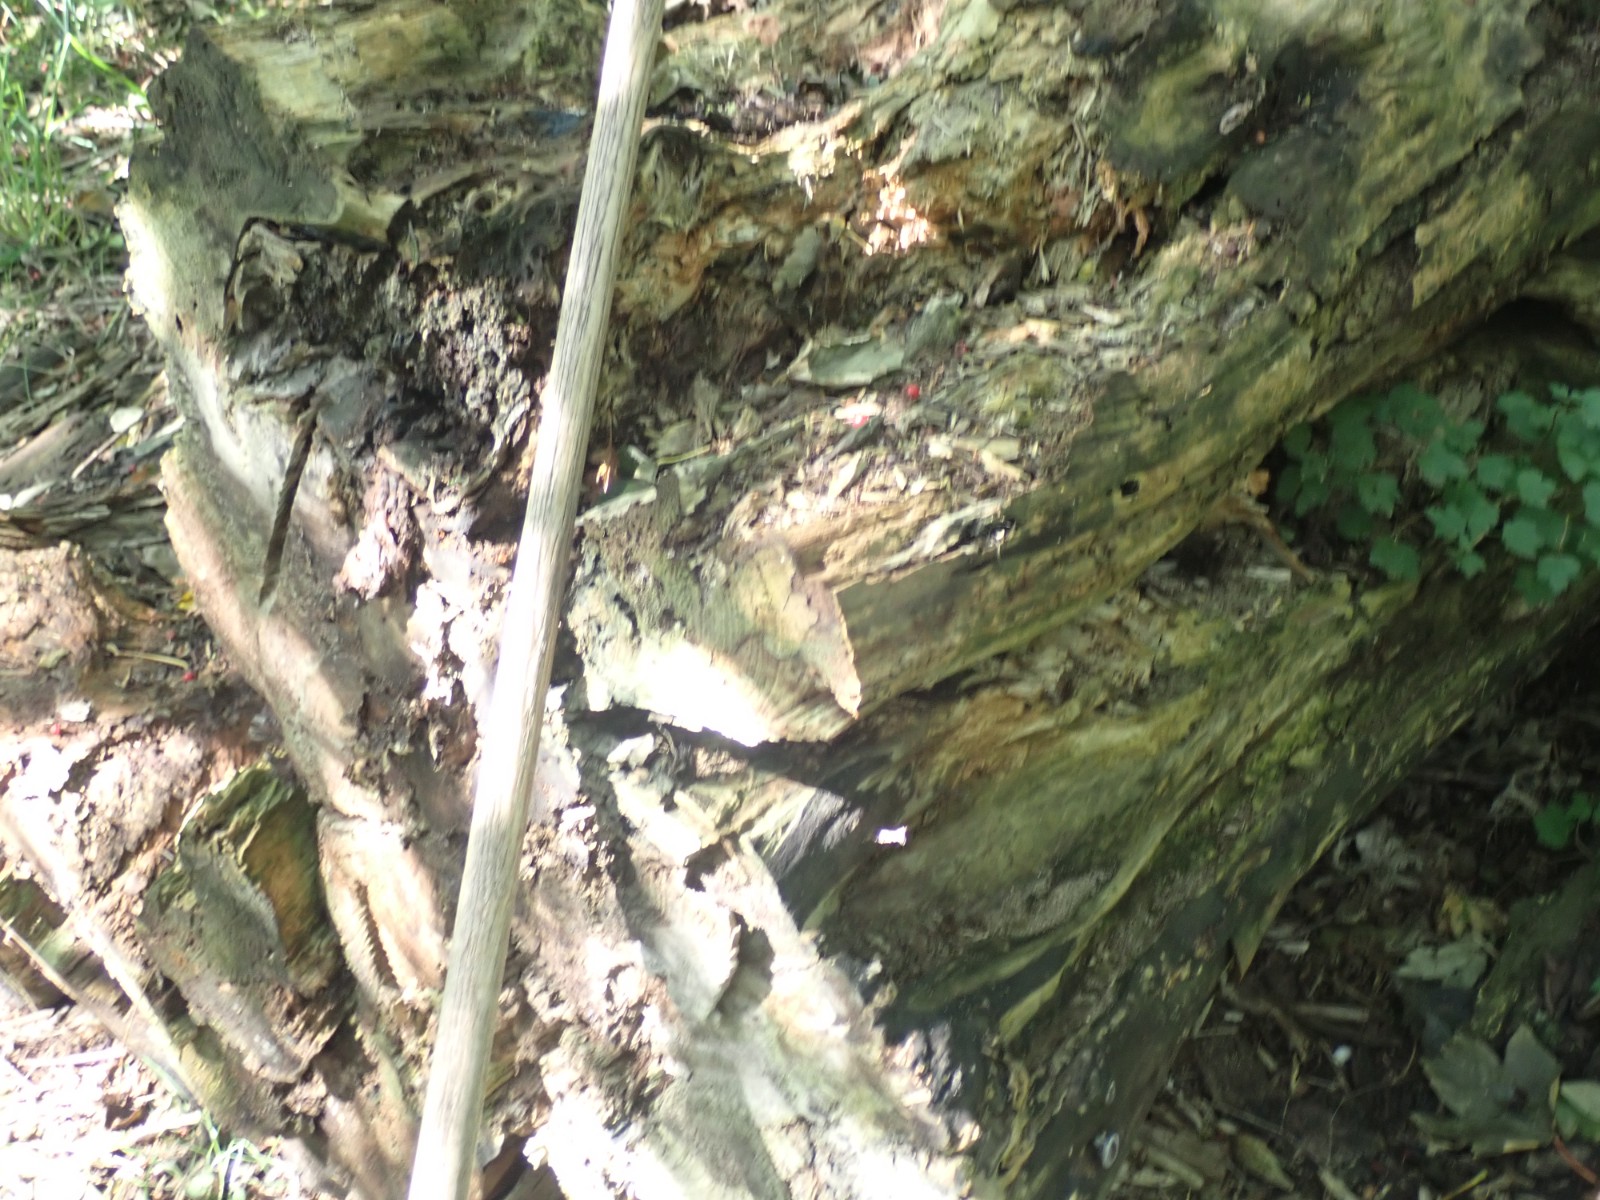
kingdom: Fungi
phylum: Basidiomycota
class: Agaricomycetes
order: Polyporales
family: Meruliaceae
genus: Phlebia
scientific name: Phlebia radiata
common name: stråle-åresvamp
